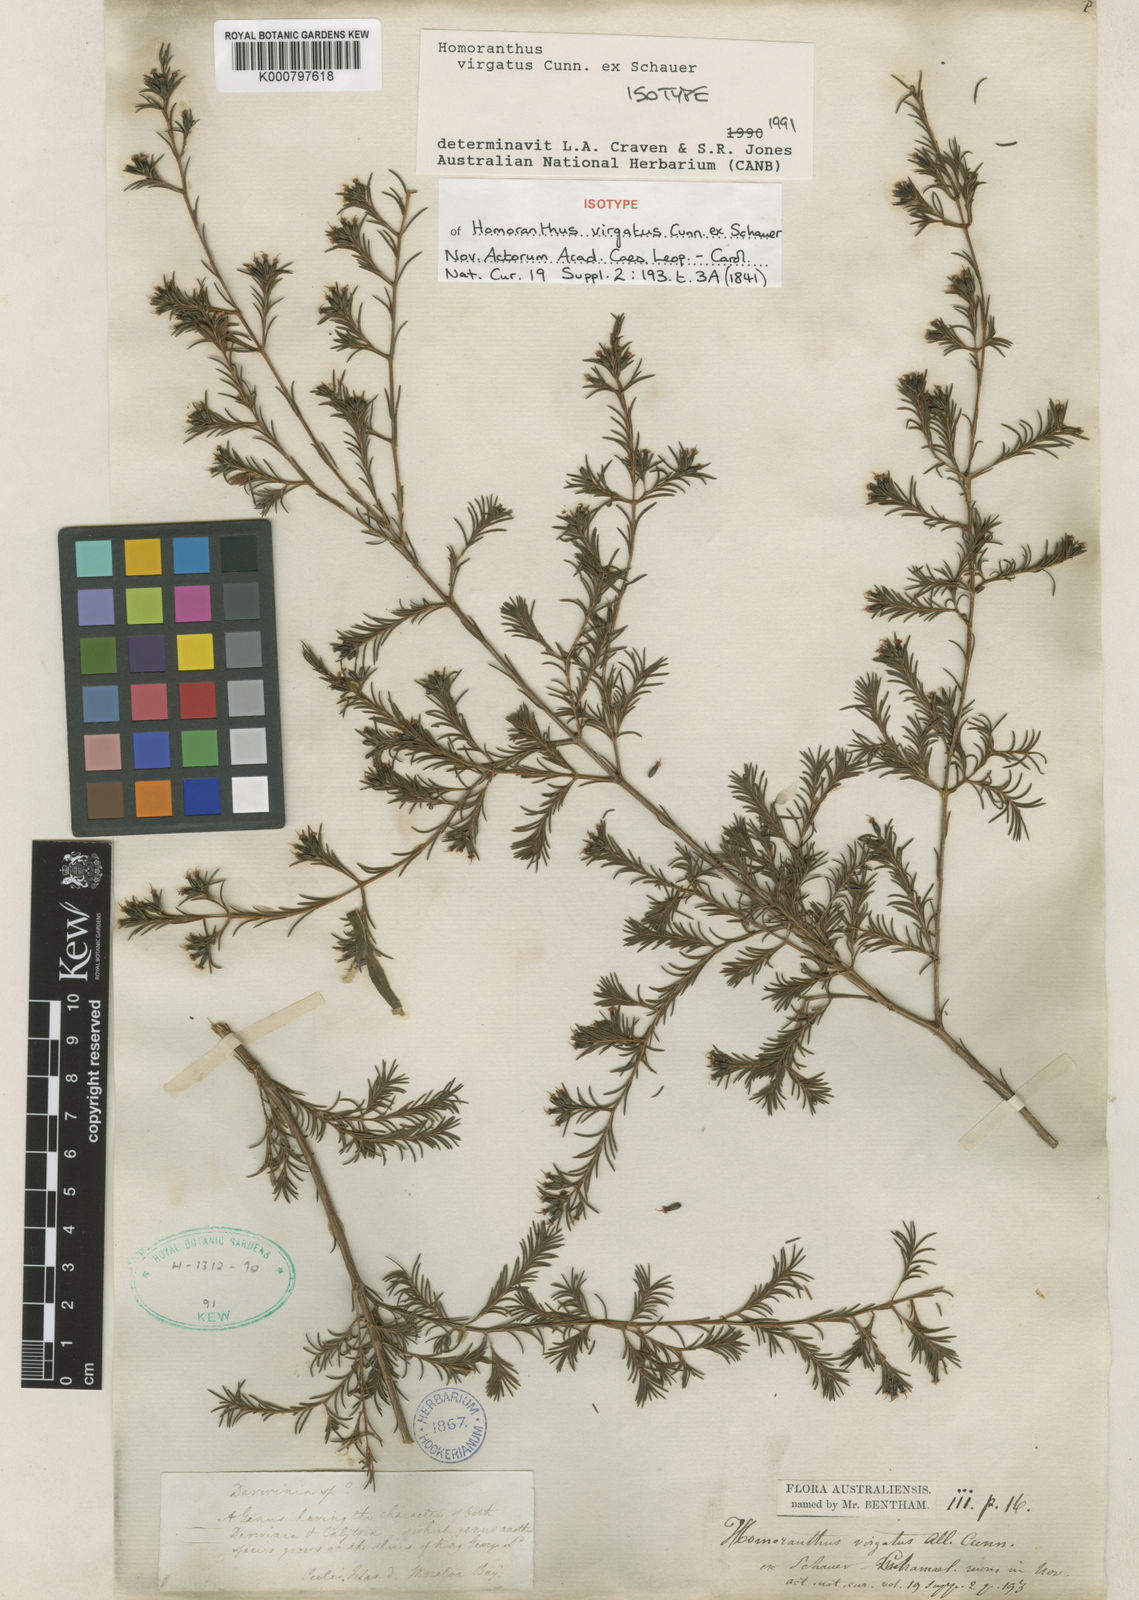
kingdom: Plantae
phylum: Tracheophyta
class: Magnoliopsida
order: Myrtales
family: Myrtaceae
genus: Homoranthus
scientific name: Homoranthus virgatus
